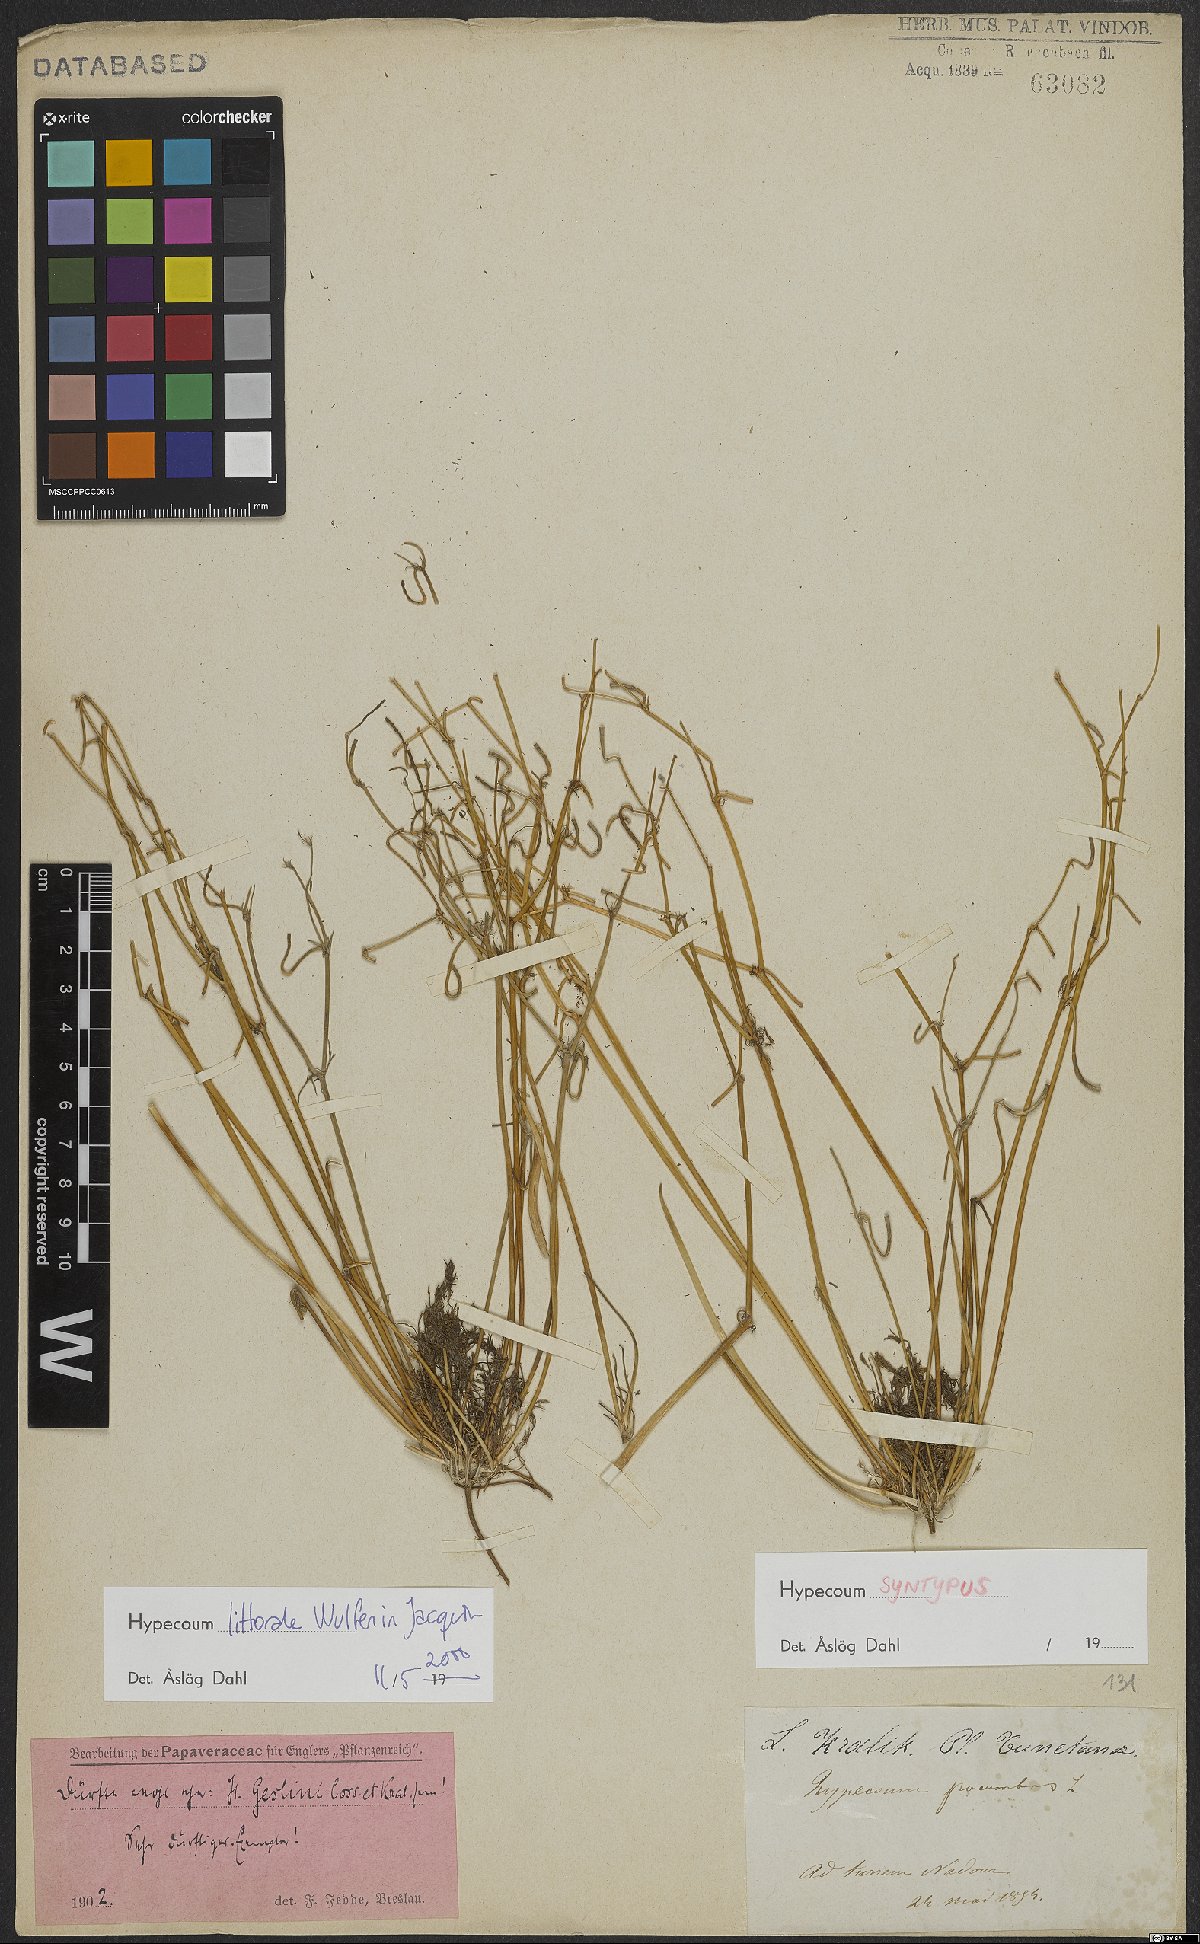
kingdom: Plantae
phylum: Tracheophyta
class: Magnoliopsida
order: Ranunculales
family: Papaveraceae
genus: Hypecoum
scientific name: Hypecoum littorale
